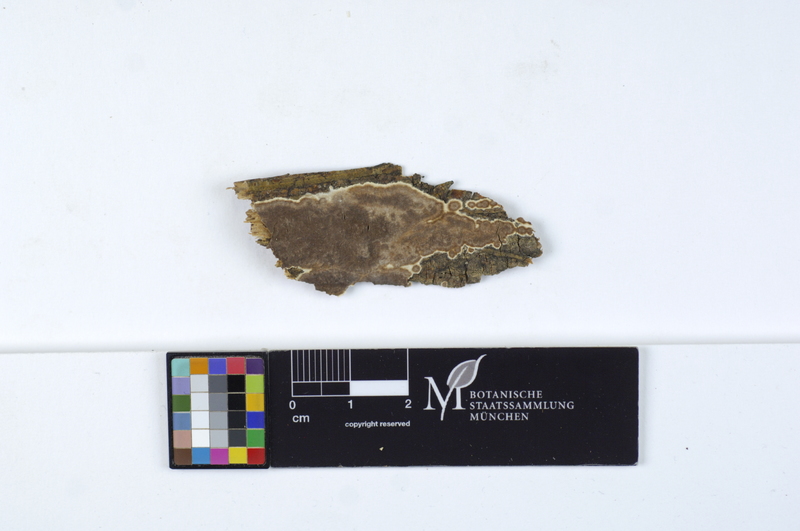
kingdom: Fungi
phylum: Basidiomycota
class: Agaricomycetes
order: Russulales
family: Peniophoraceae
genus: Peniophora
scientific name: Peniophora malenconii
